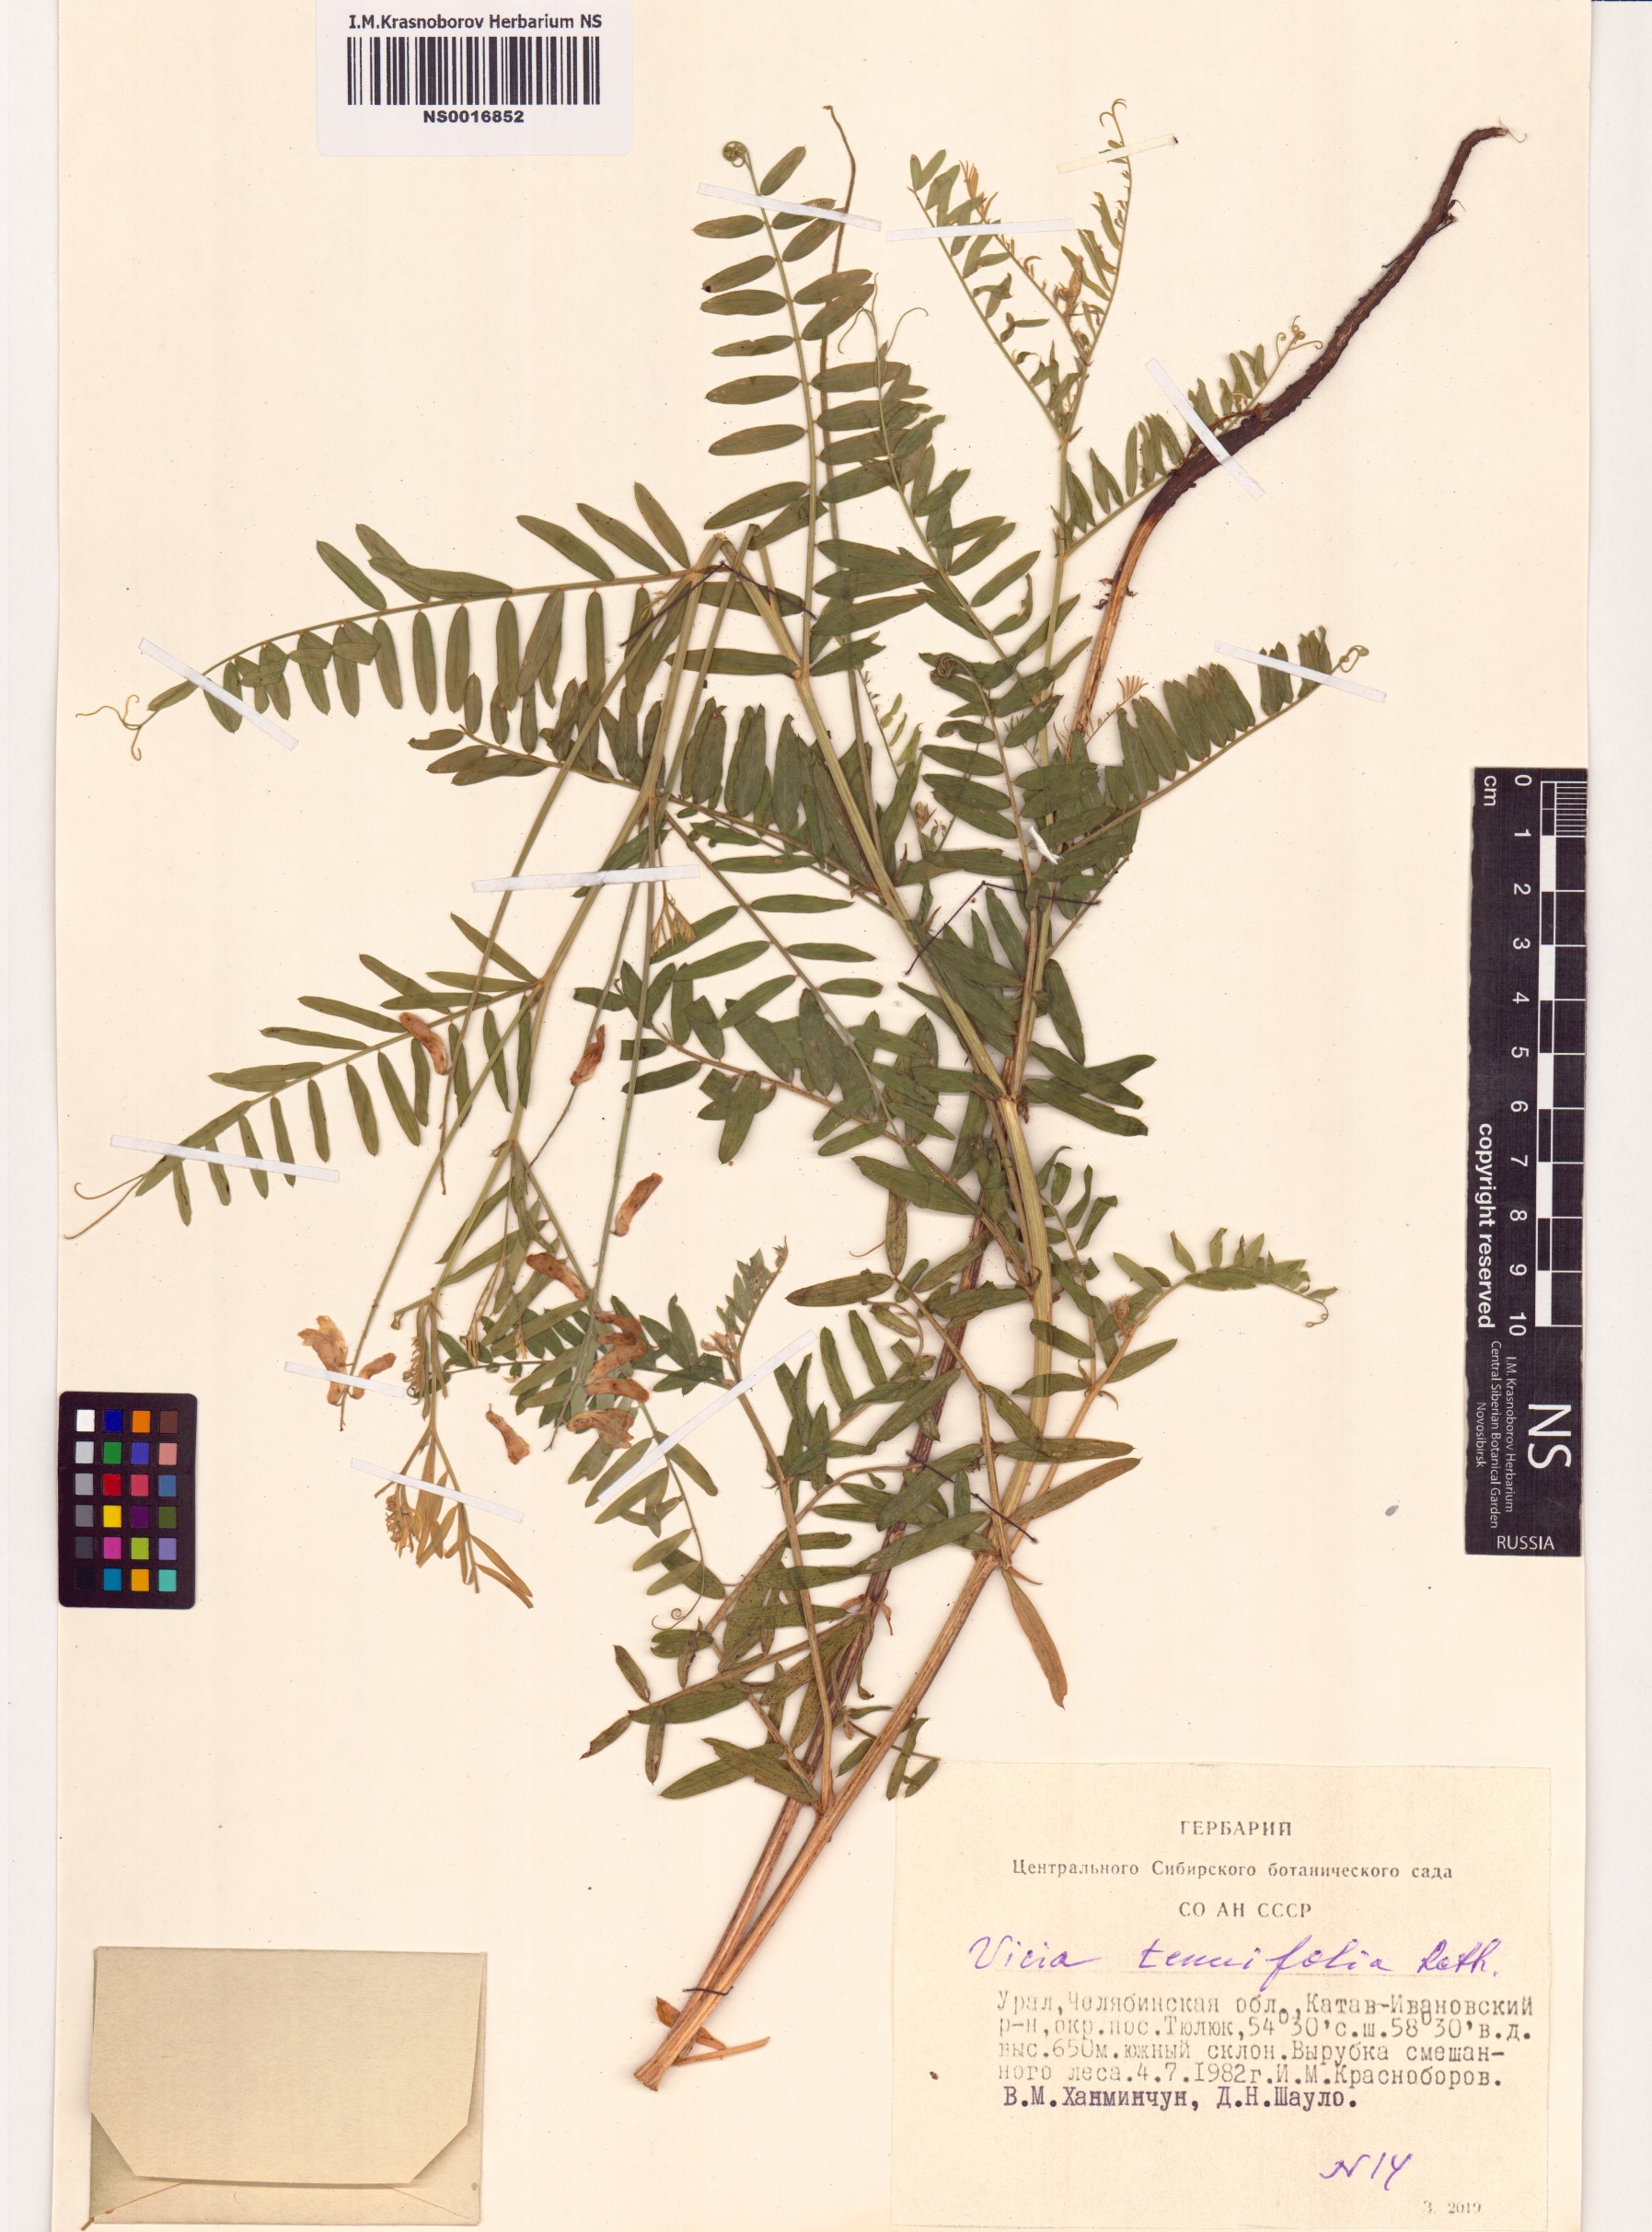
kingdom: Plantae
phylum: Tracheophyta
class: Magnoliopsida
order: Fabales
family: Fabaceae
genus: Vicia
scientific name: Vicia tenuifolia
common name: Fine-leaved vetch
